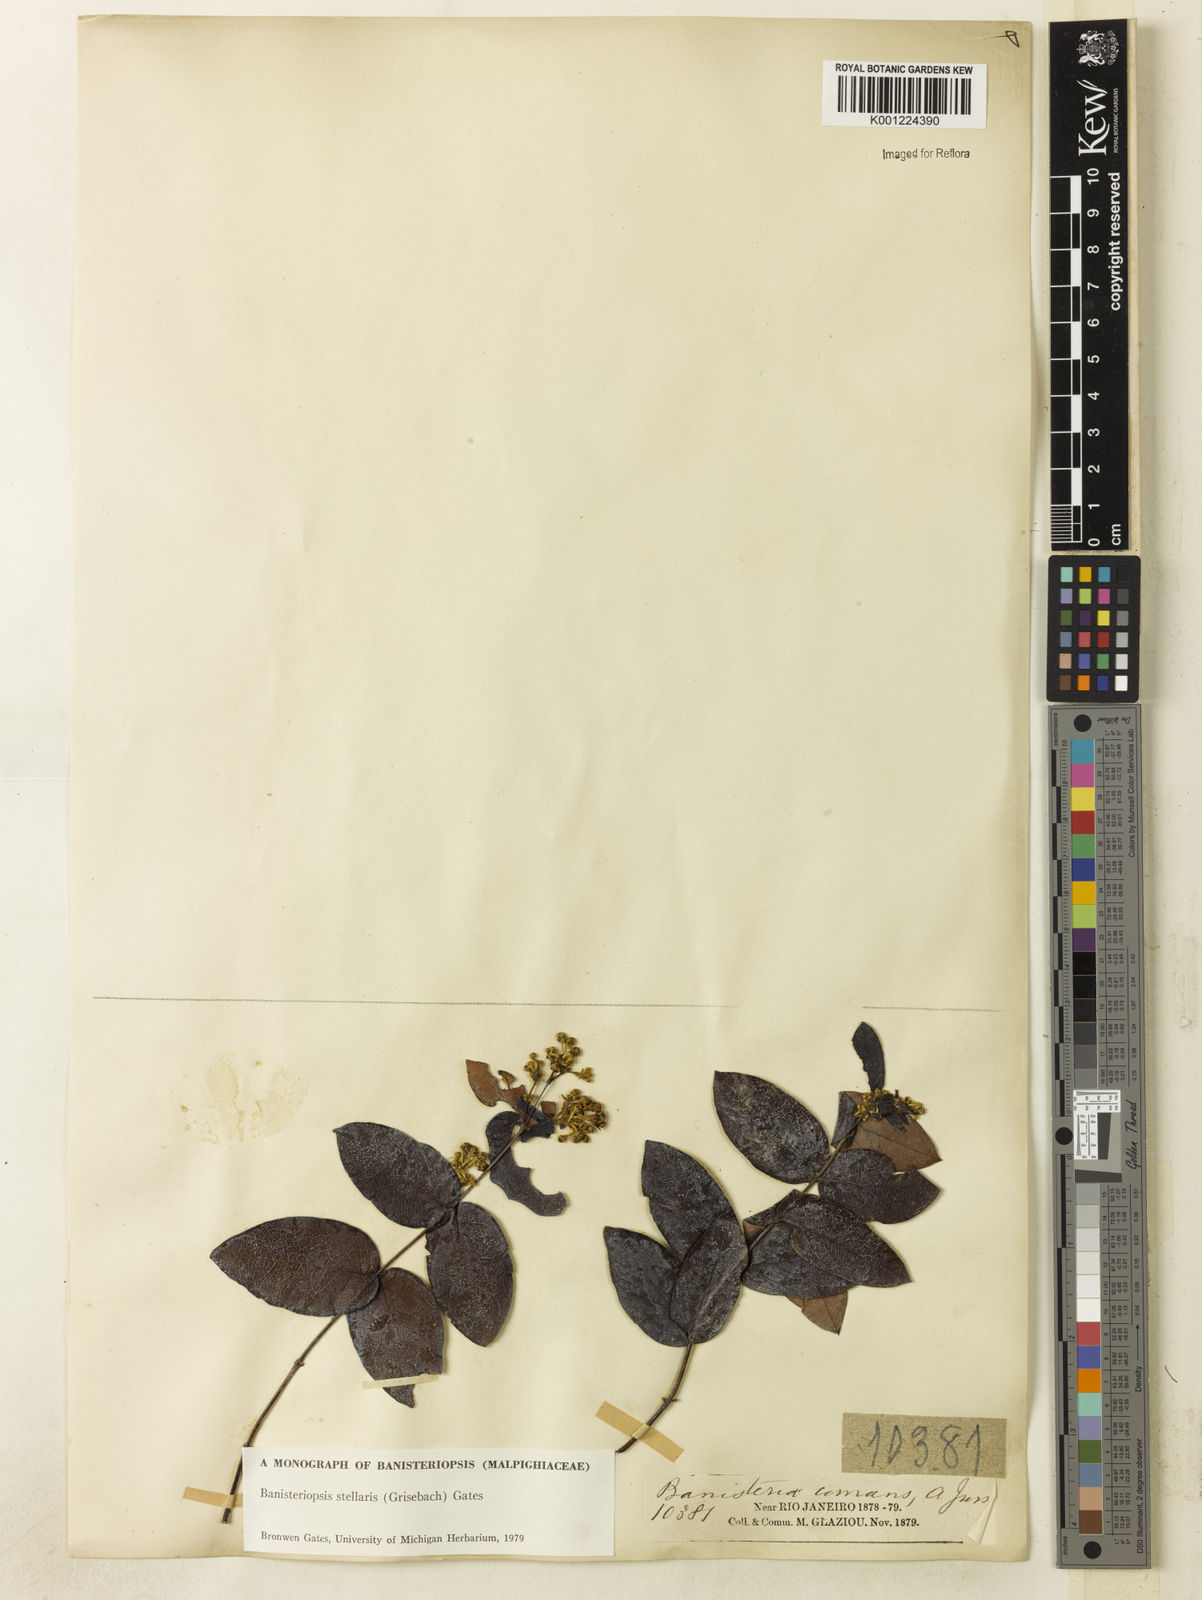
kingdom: Plantae
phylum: Tracheophyta
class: Magnoliopsida
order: Malpighiales
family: Malpighiaceae
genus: Banisteriopsis
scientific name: Banisteriopsis stellaris
